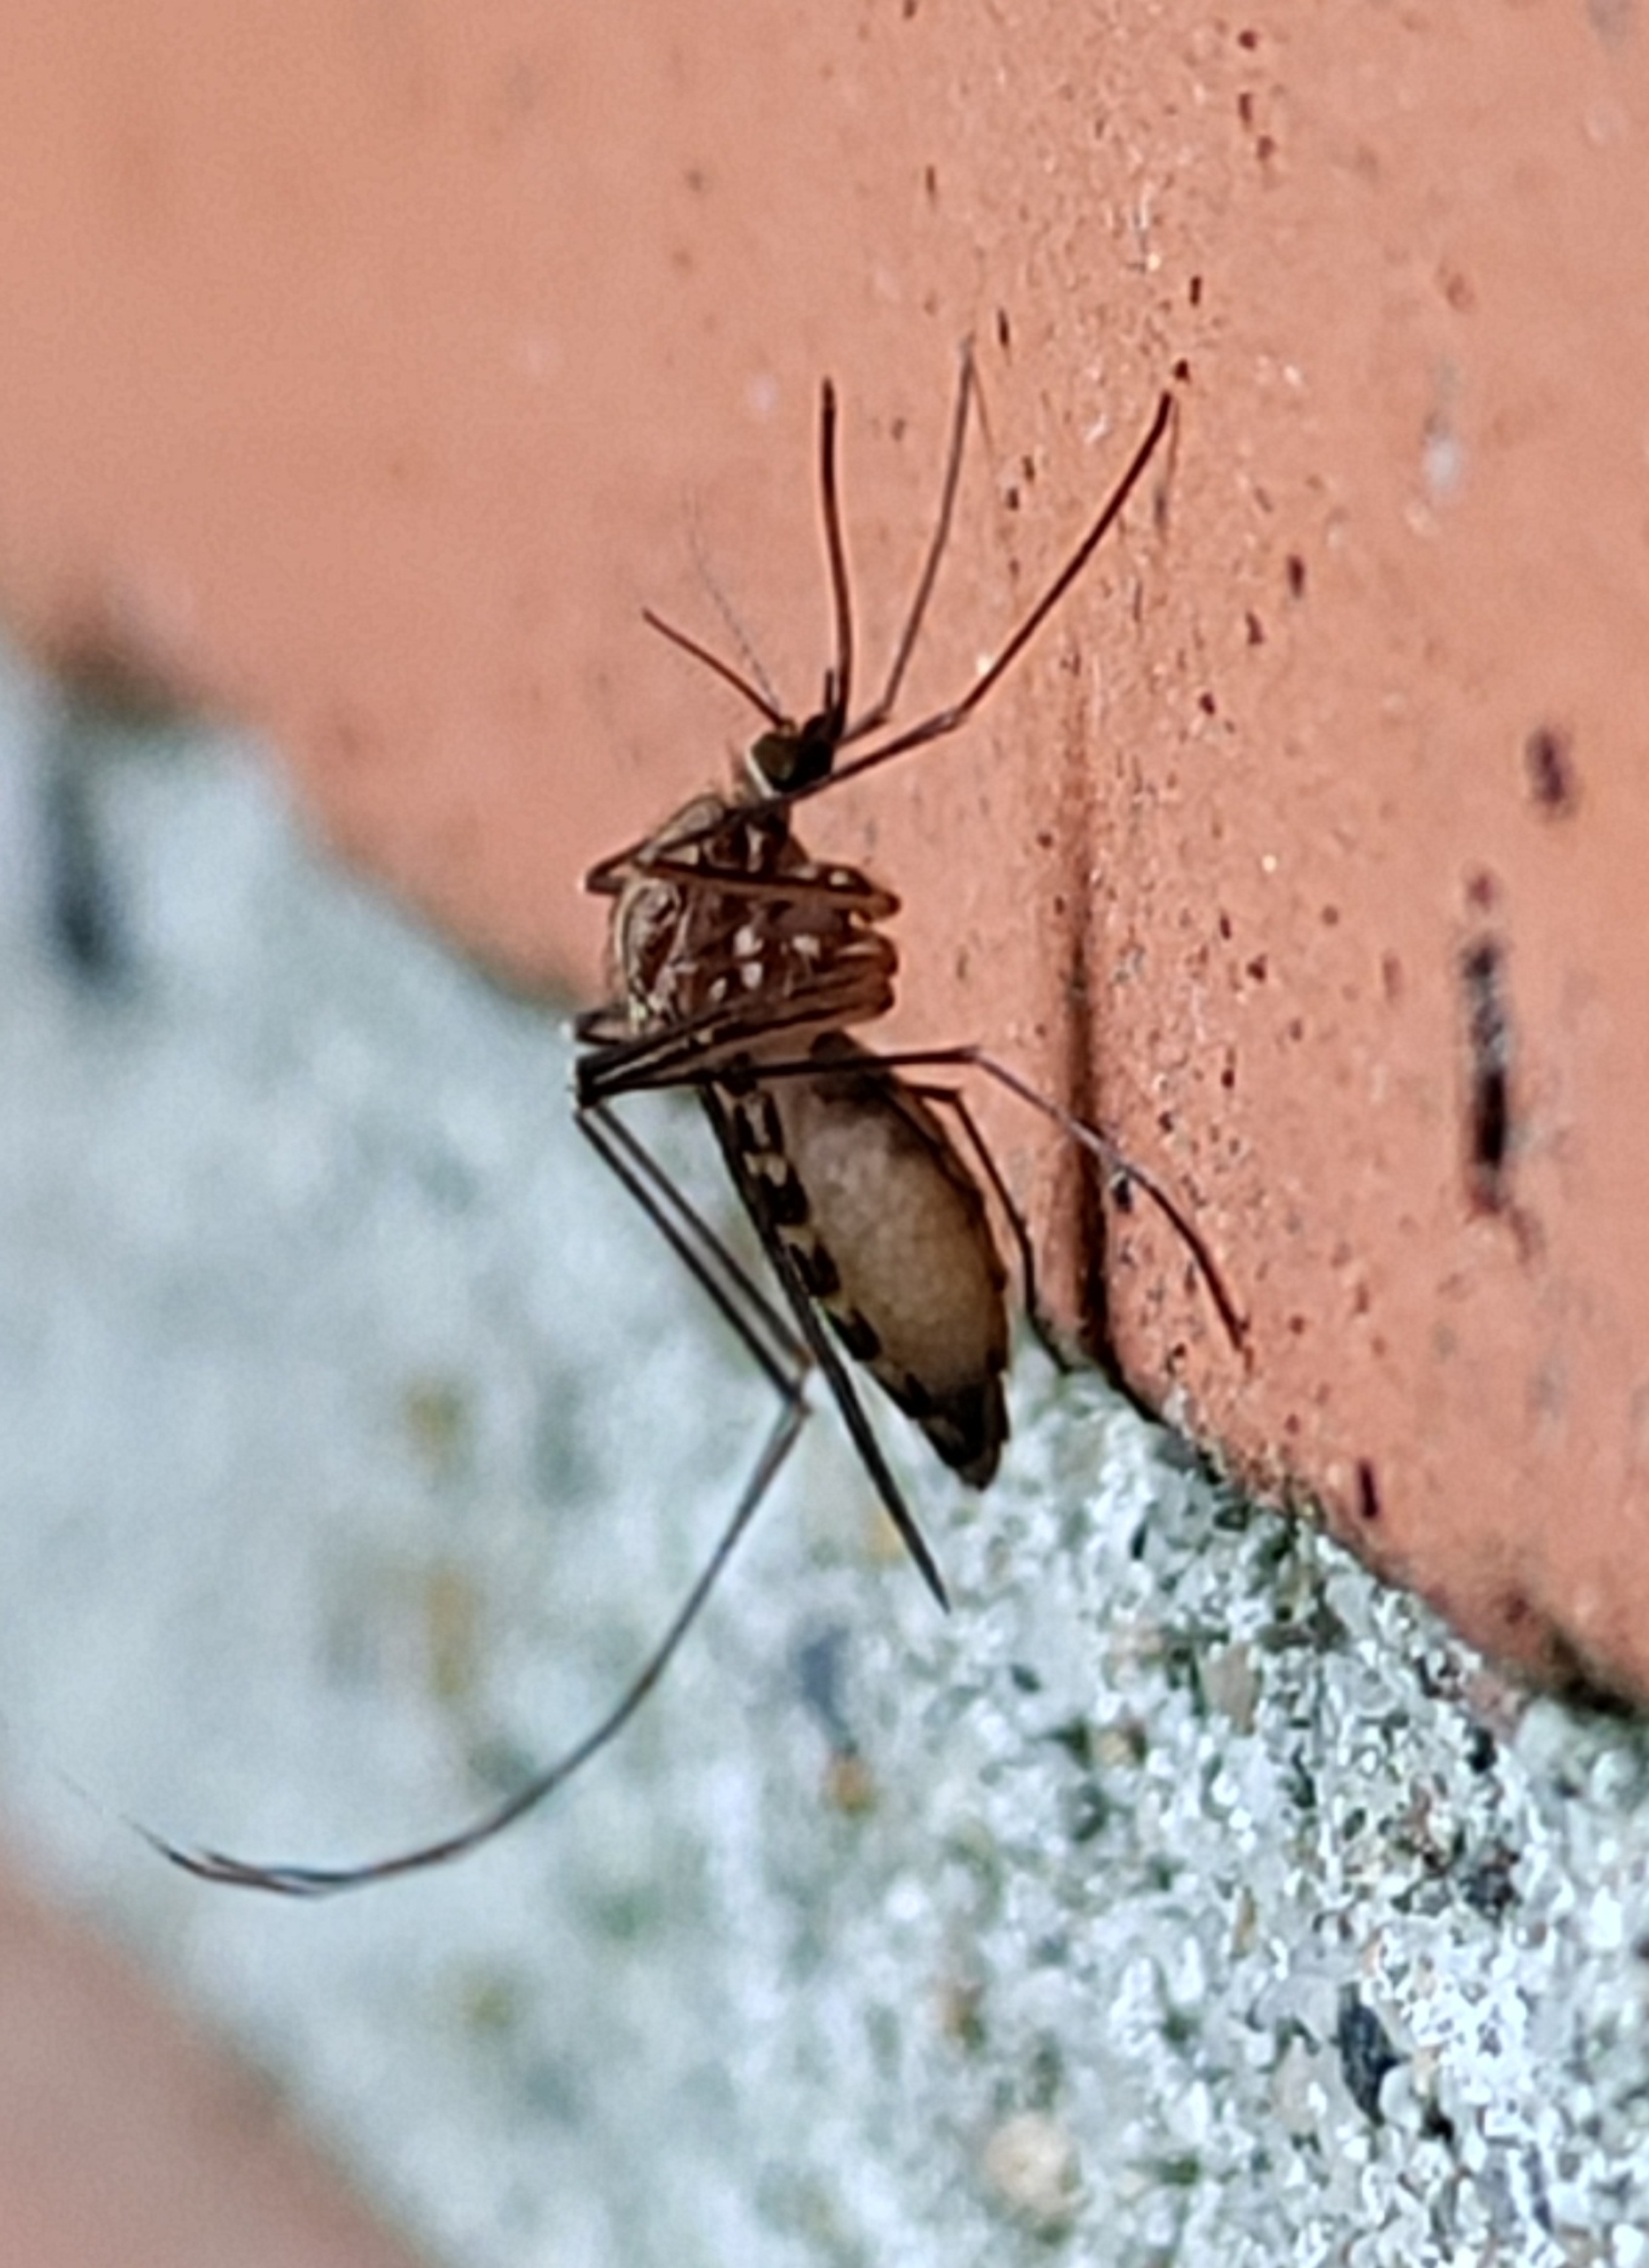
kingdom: Animalia
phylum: Arthropoda
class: Insecta
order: Diptera
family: Culicidae
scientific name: Culicidae
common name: Stikmyg
